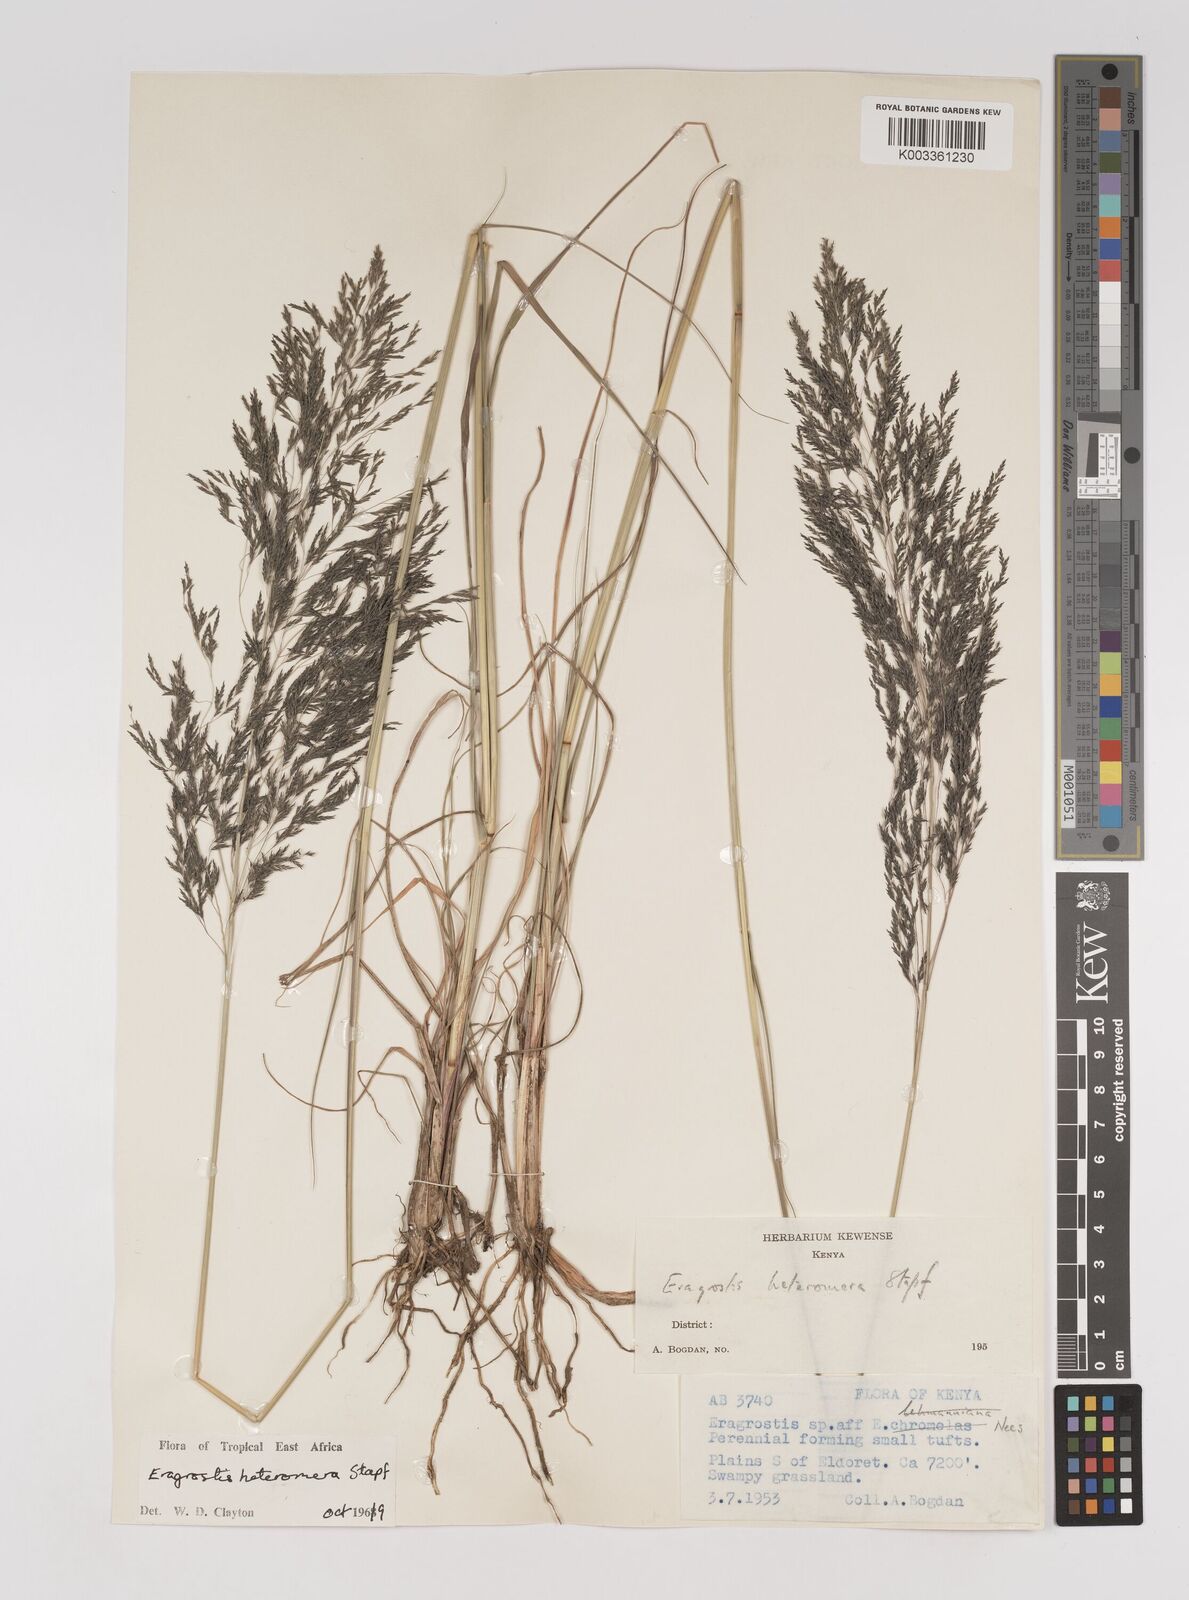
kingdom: Plantae
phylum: Tracheophyta
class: Liliopsida
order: Poales
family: Poaceae
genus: Eragrostis
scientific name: Eragrostis heteromera
